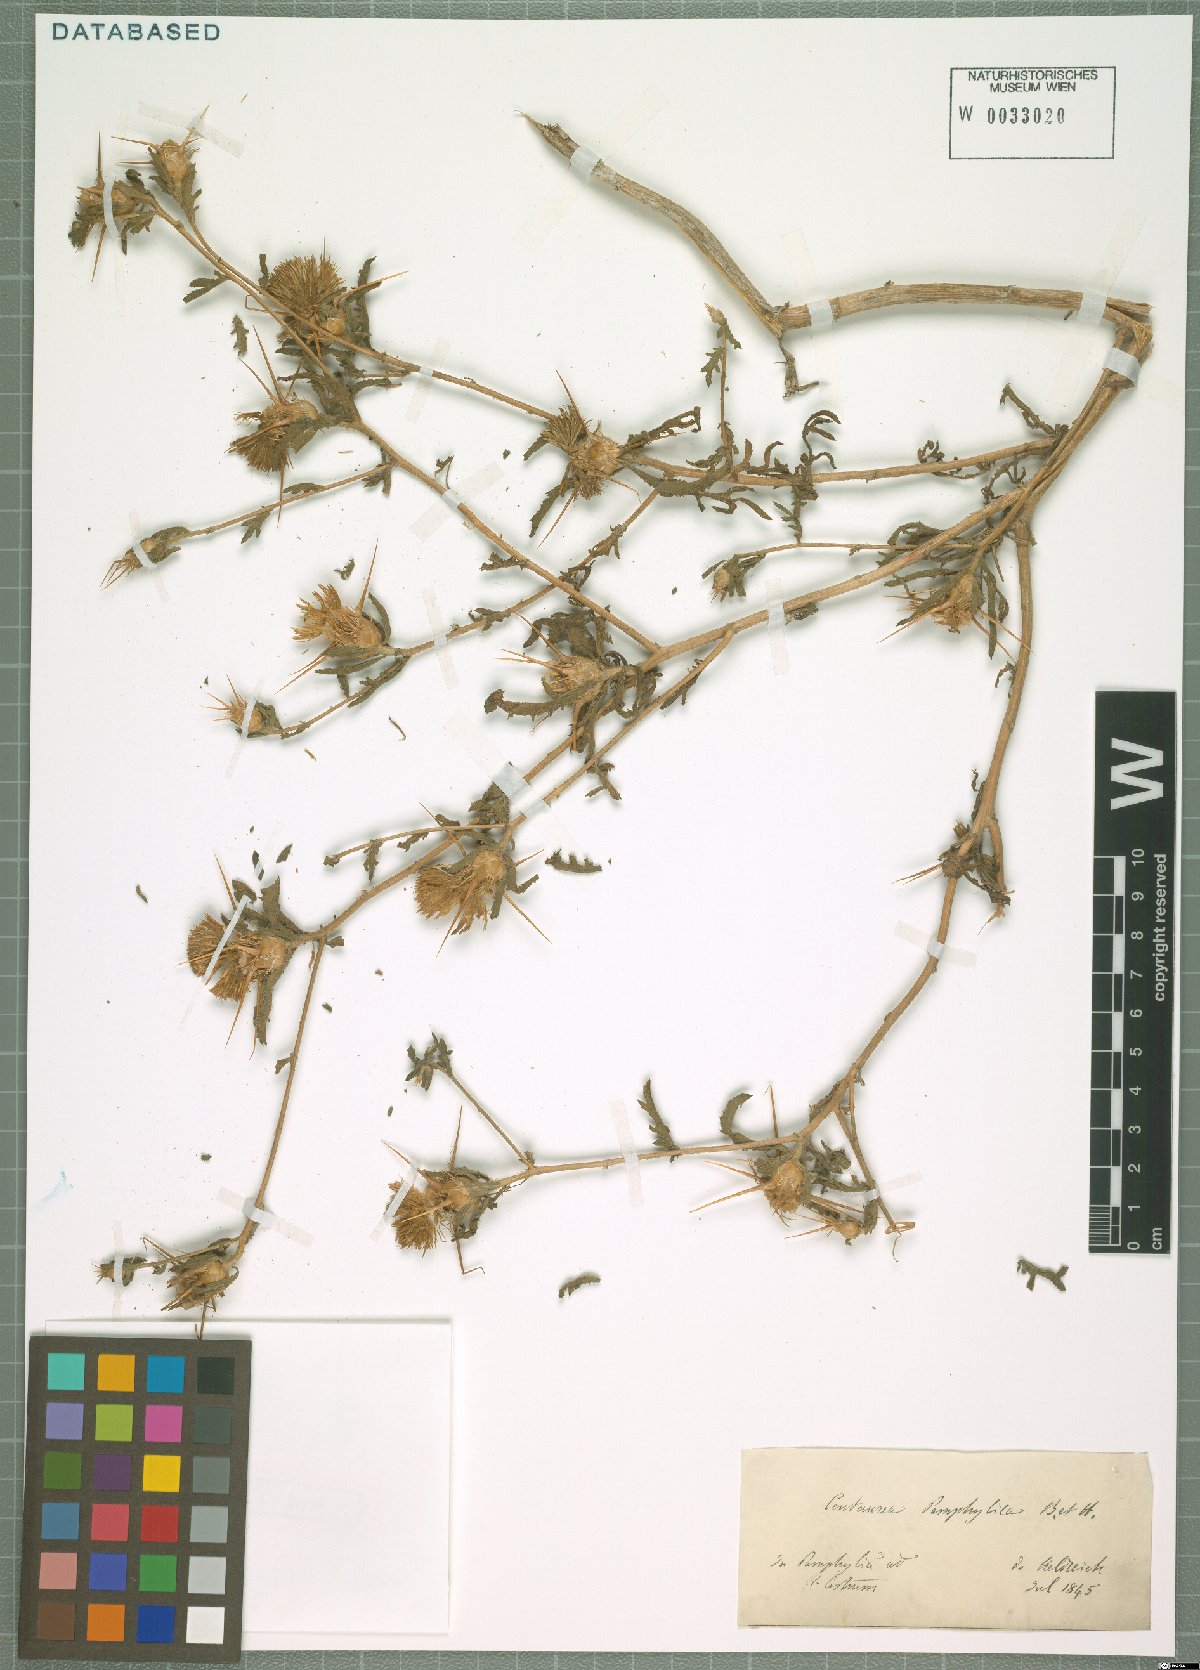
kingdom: Plantae
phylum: Tracheophyta
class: Magnoliopsida
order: Asterales
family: Asteraceae
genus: Centaurea
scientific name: Centaurea pamphylica
